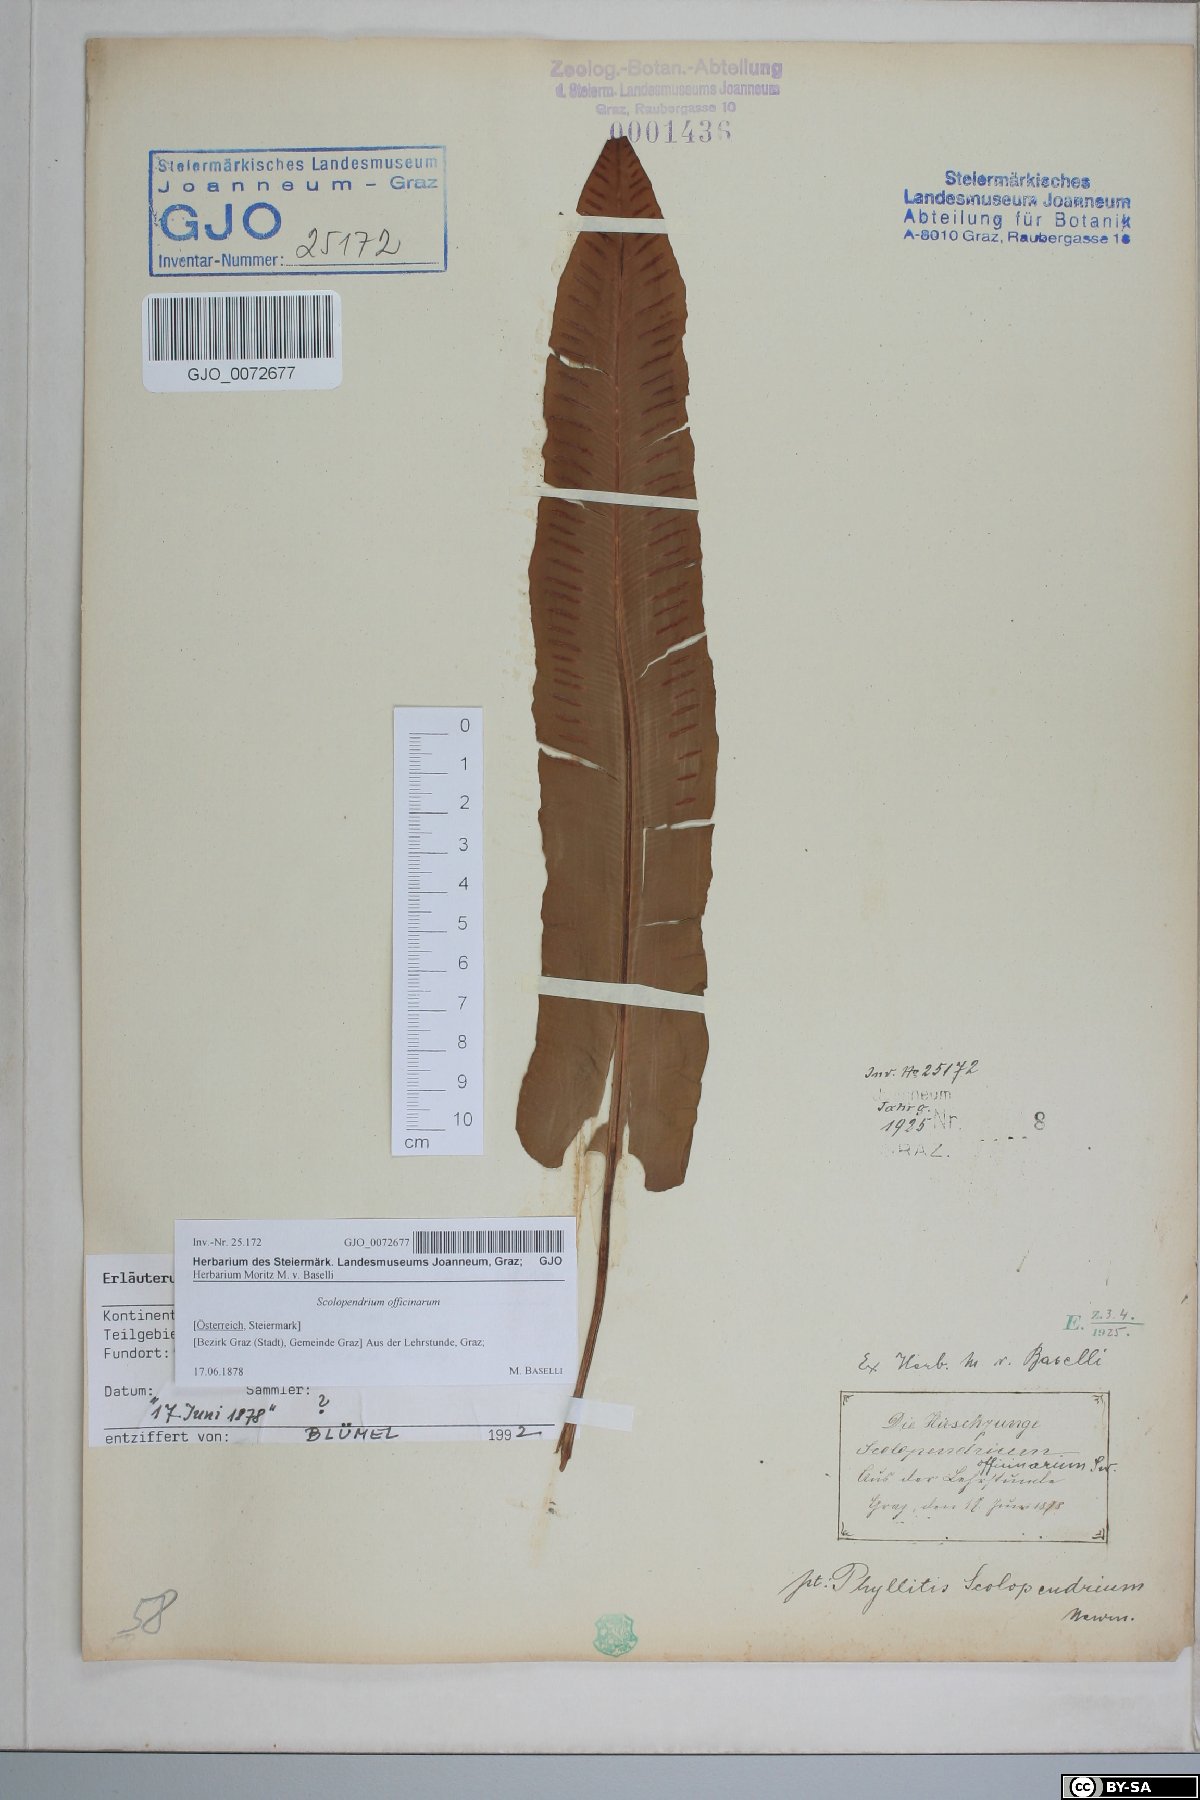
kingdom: Plantae
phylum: Tracheophyta
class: Polypodiopsida
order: Polypodiales
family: Aspleniaceae
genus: Asplenium
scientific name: Asplenium scolopendrium
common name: Hart's-tongue fern
